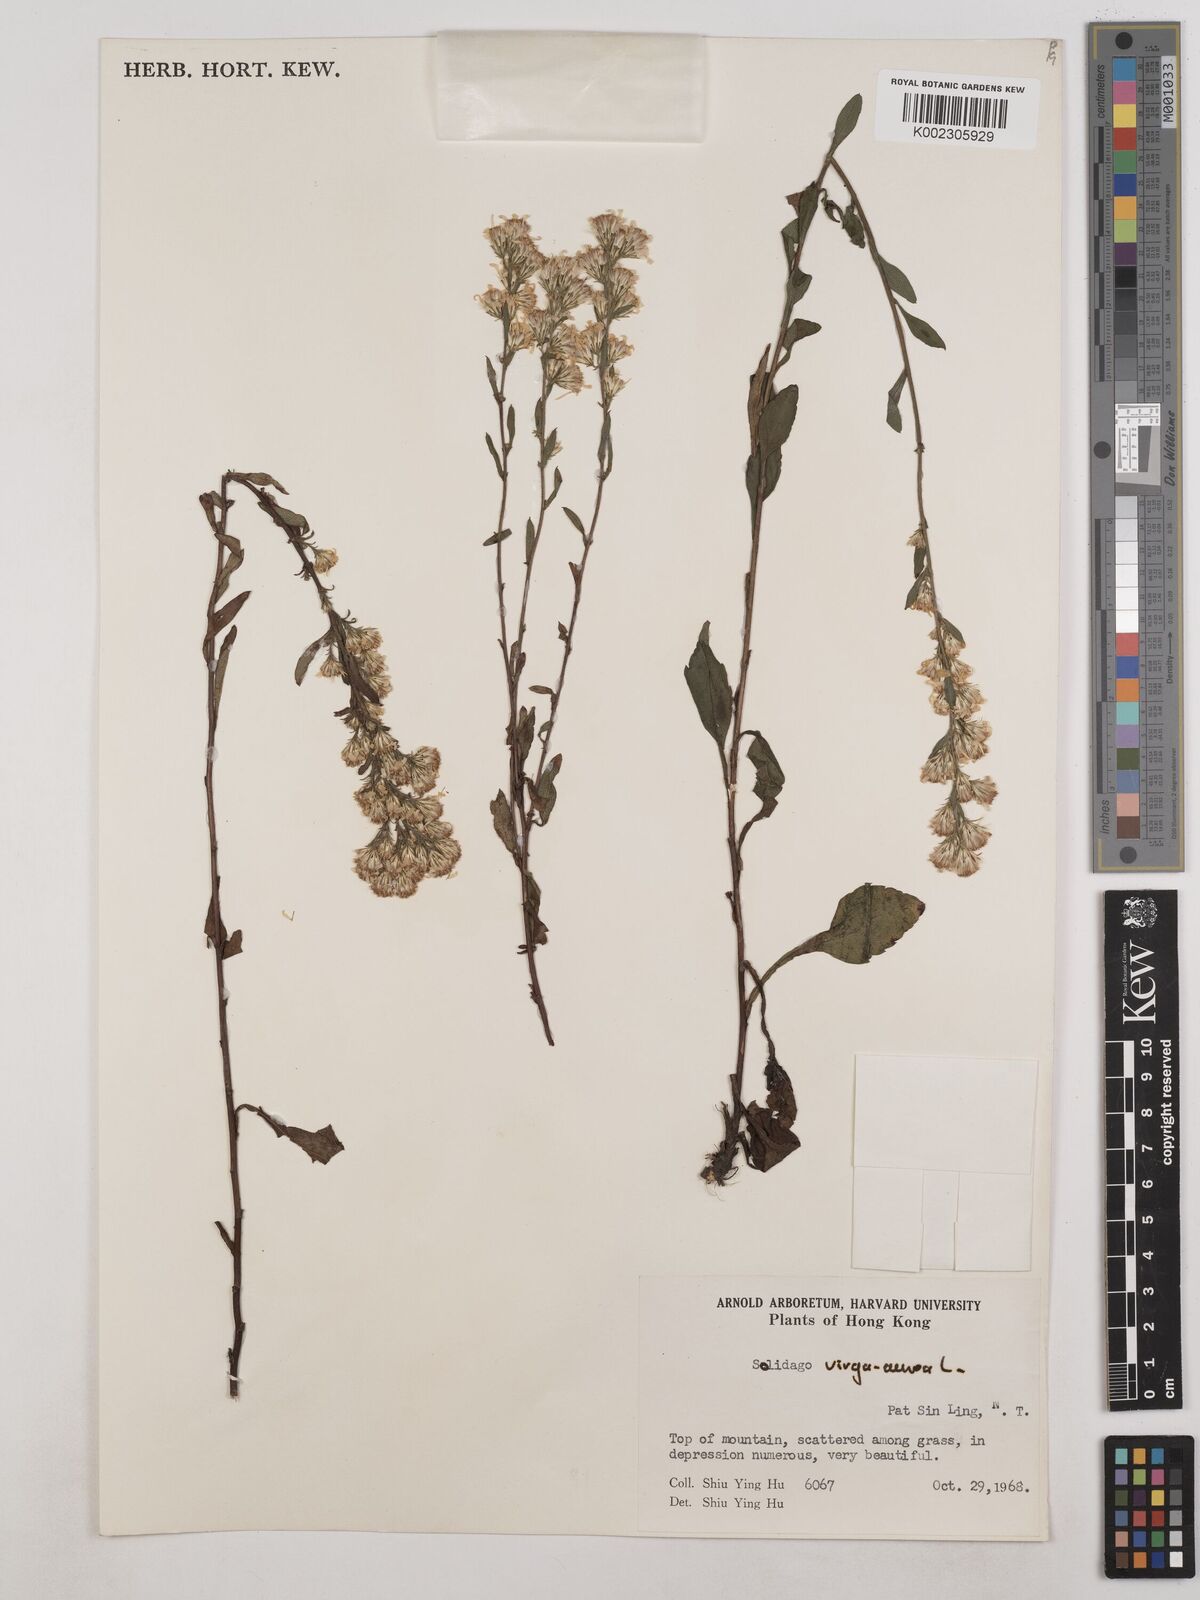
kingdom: Plantae
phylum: Tracheophyta
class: Magnoliopsida
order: Asterales
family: Asteraceae
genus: Solidago
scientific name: Solidago virgaurea
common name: Goldenrod
